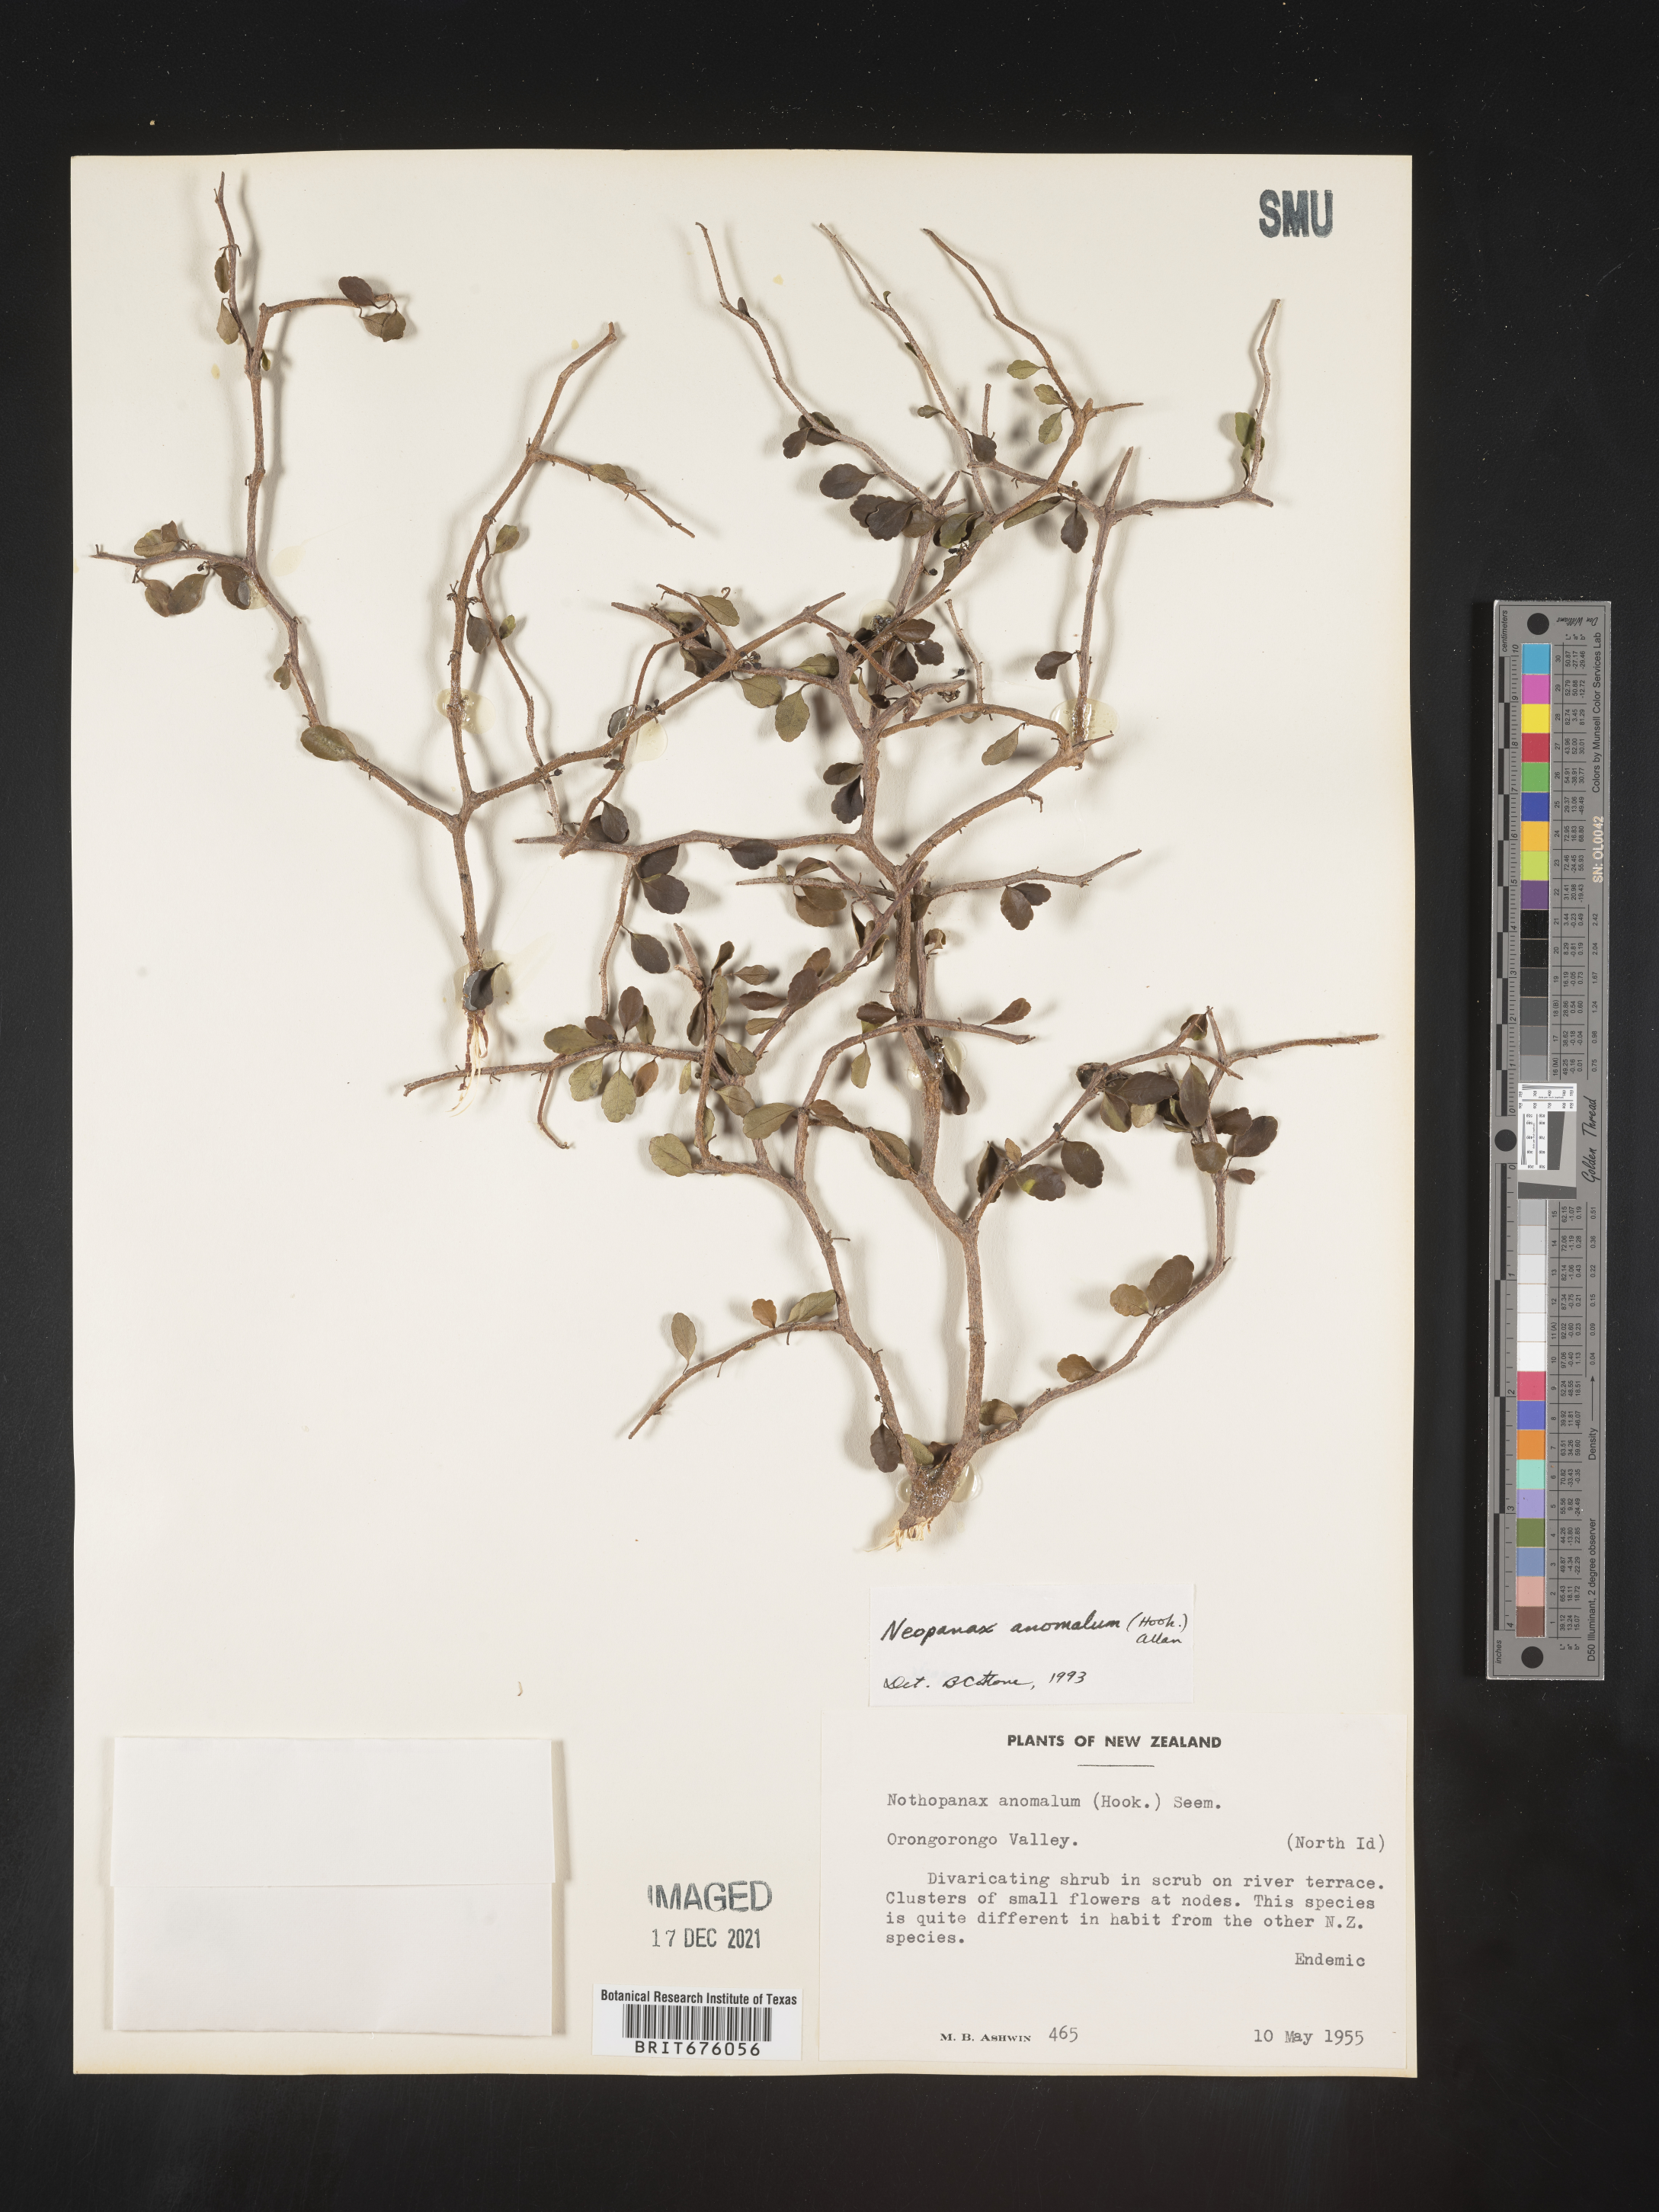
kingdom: Plantae
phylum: Tracheophyta
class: Magnoliopsida
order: Apiales
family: Araliaceae
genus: Raukaua
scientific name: Raukaua anomalus
